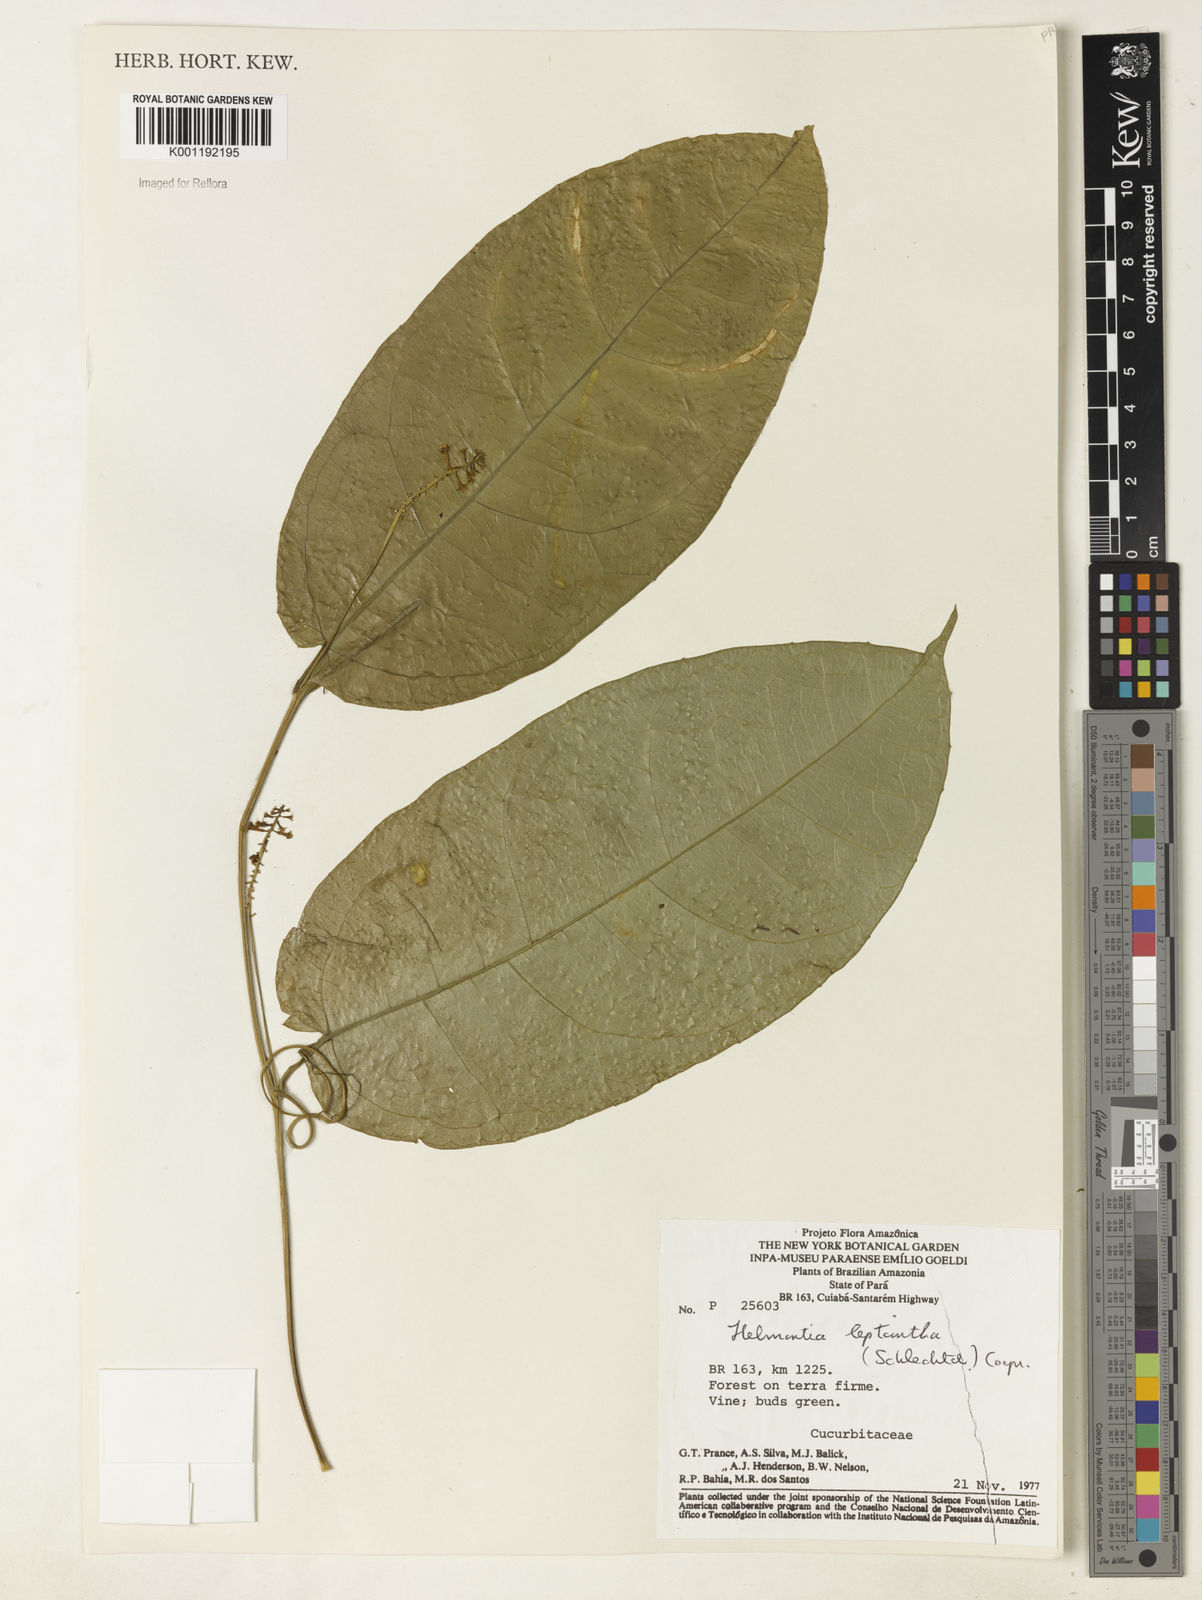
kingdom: Plantae
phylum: Tracheophyta
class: Magnoliopsida
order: Cucurbitales
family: Cucurbitaceae
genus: Helmontia
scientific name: Helmontia leptantha
